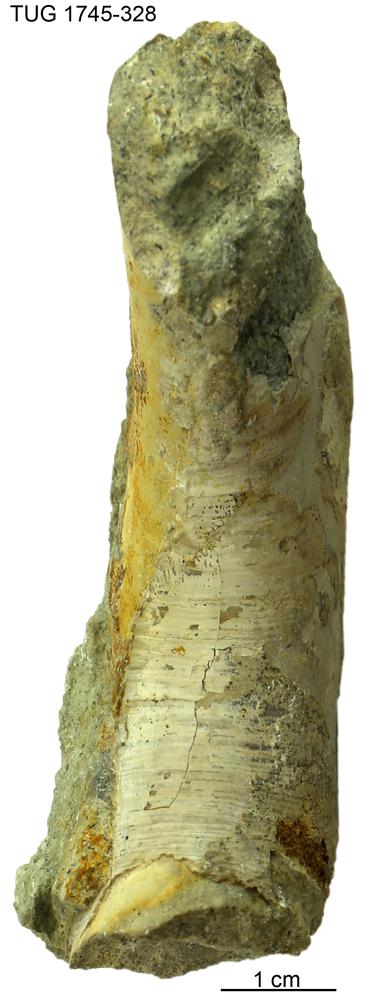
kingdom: Animalia
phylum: Mollusca
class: Cephalopoda
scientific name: Cephalopoda
